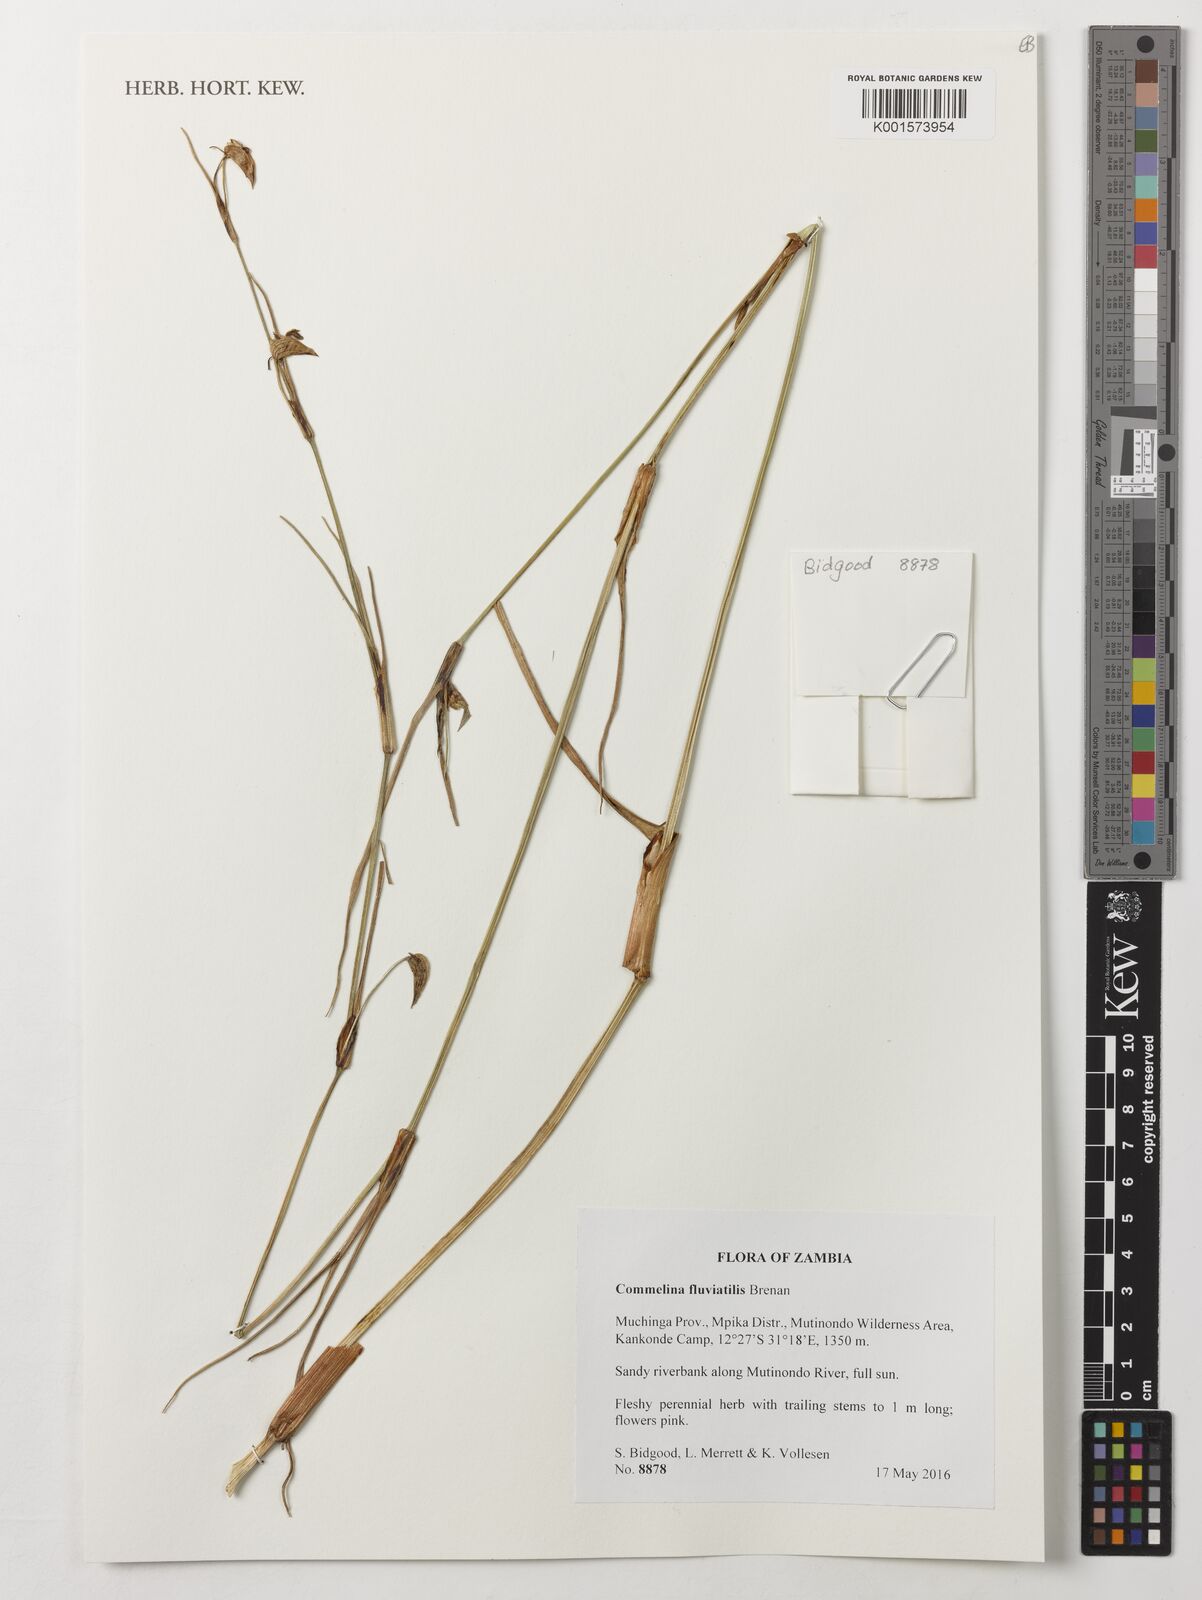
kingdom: Plantae
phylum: Tracheophyta
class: Liliopsida
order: Commelinales
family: Commelinaceae
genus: Commelina
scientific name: Commelina fluviatilis
